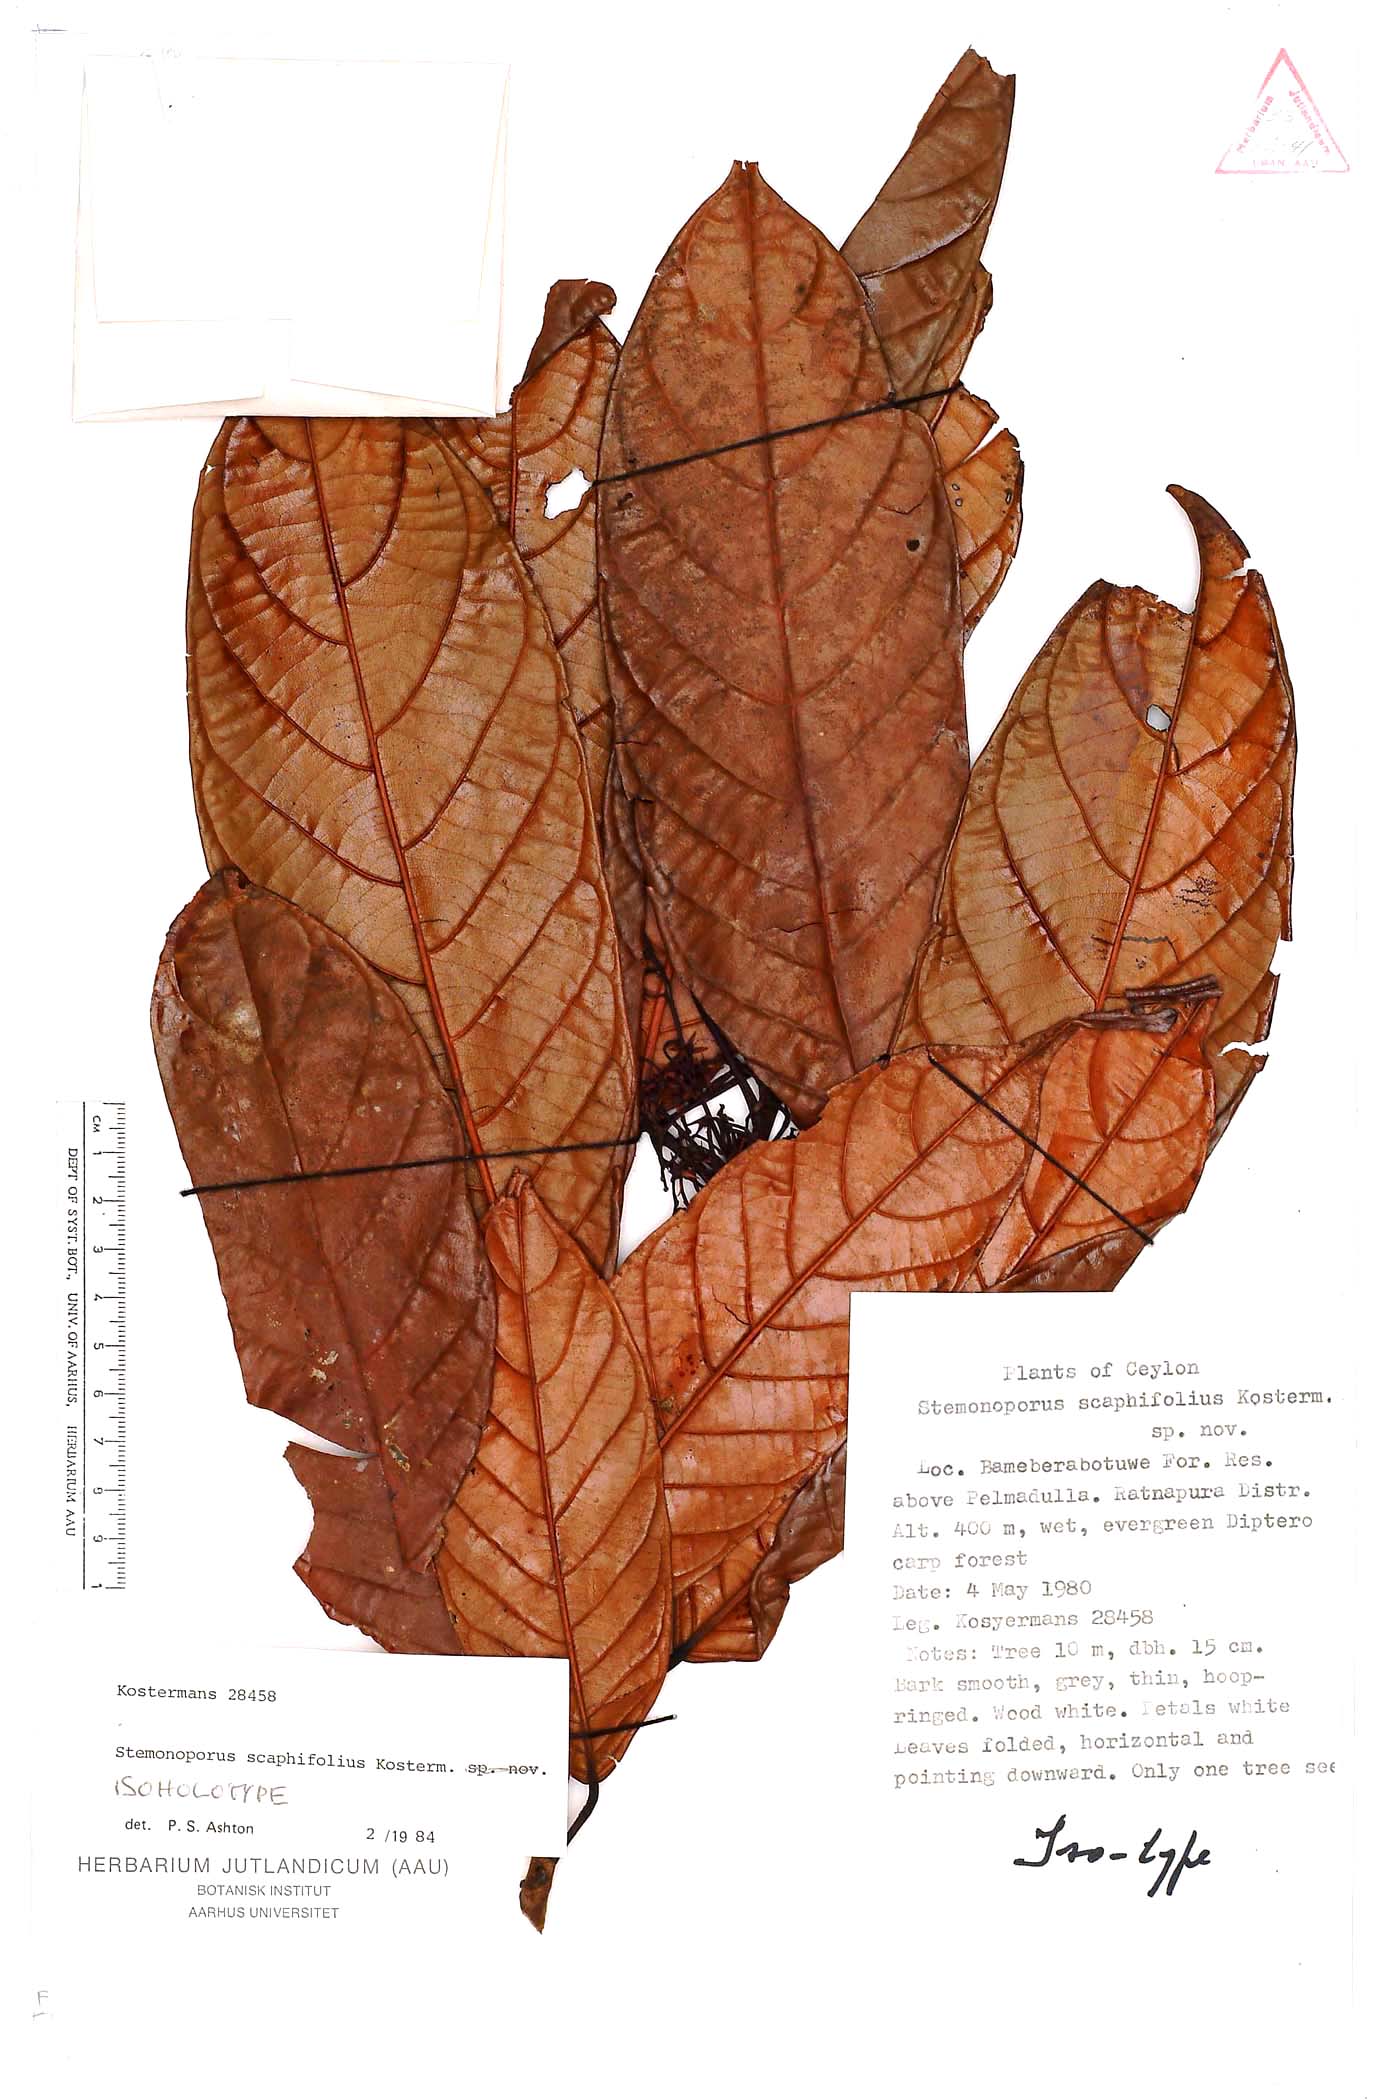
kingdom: Plantae
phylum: Tracheophyta
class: Magnoliopsida
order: Malvales
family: Dipterocarpaceae
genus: Stemonoporus
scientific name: Stemonoporus scaphifolius
